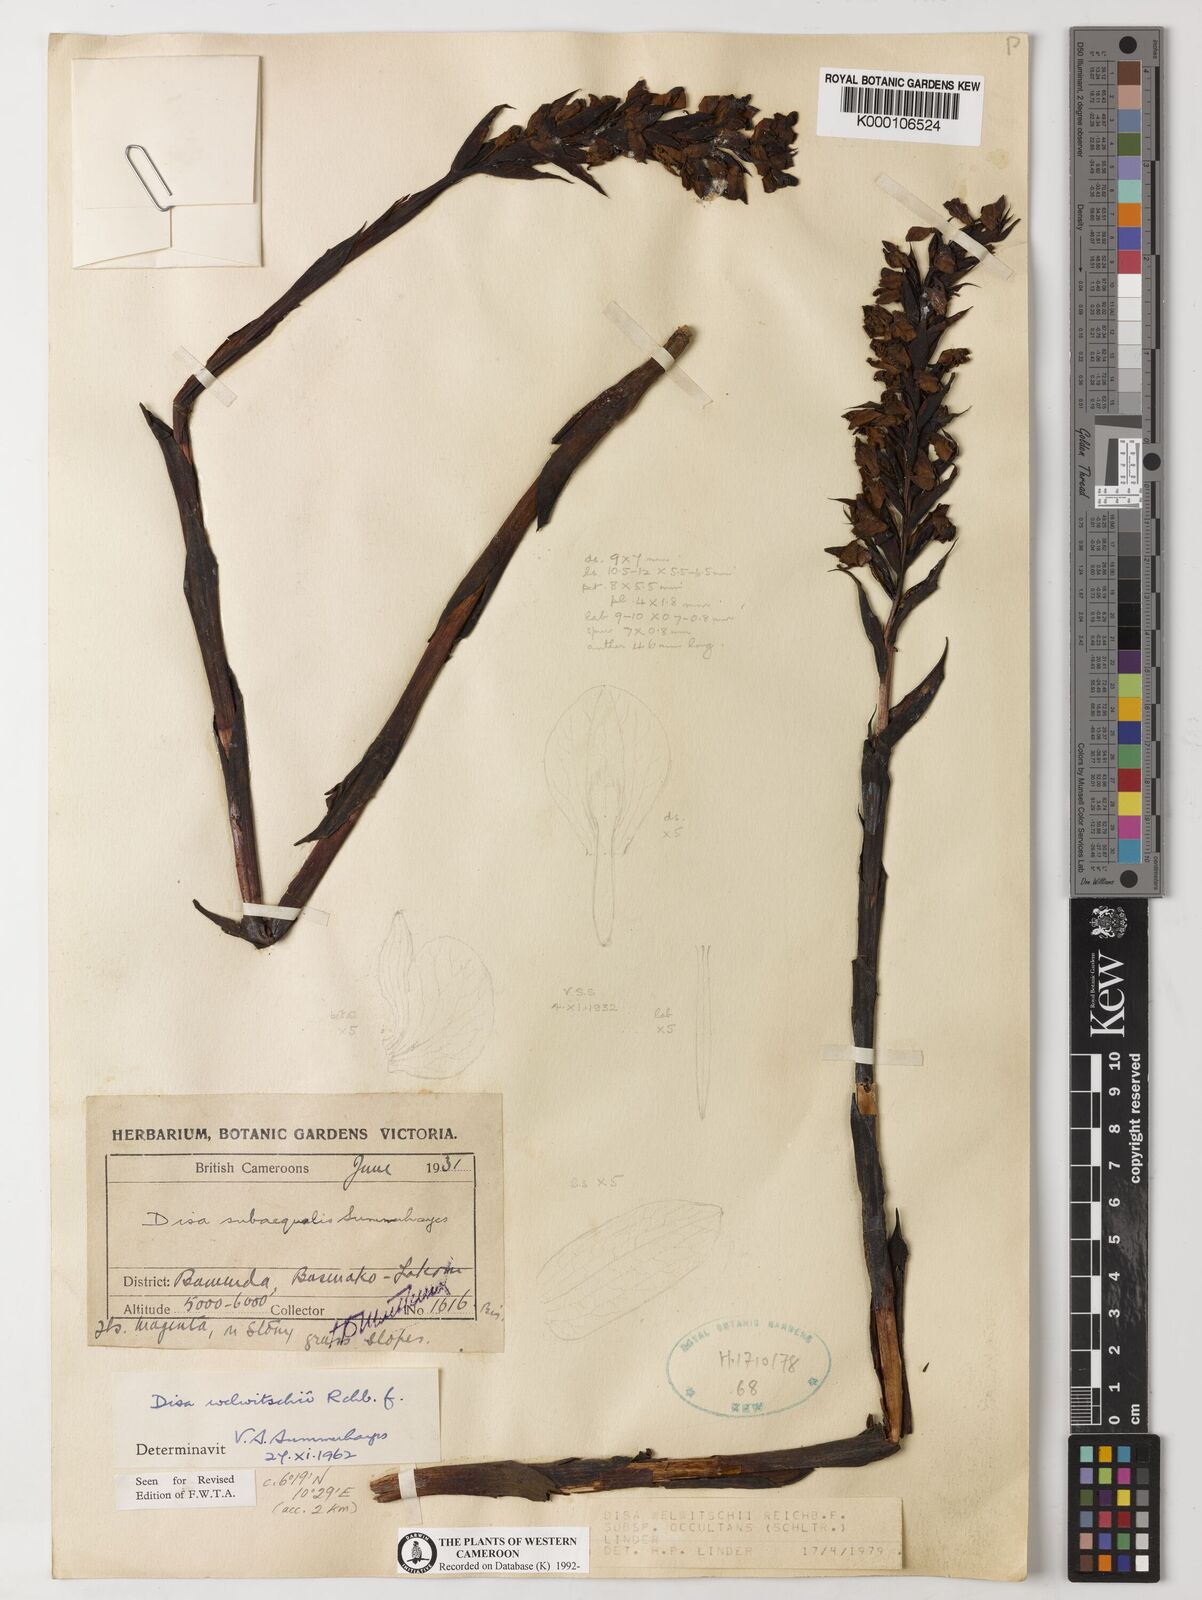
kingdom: Plantae
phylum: Tracheophyta
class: Liliopsida
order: Asparagales
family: Orchidaceae
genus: Disa
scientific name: Disa welwitschii
